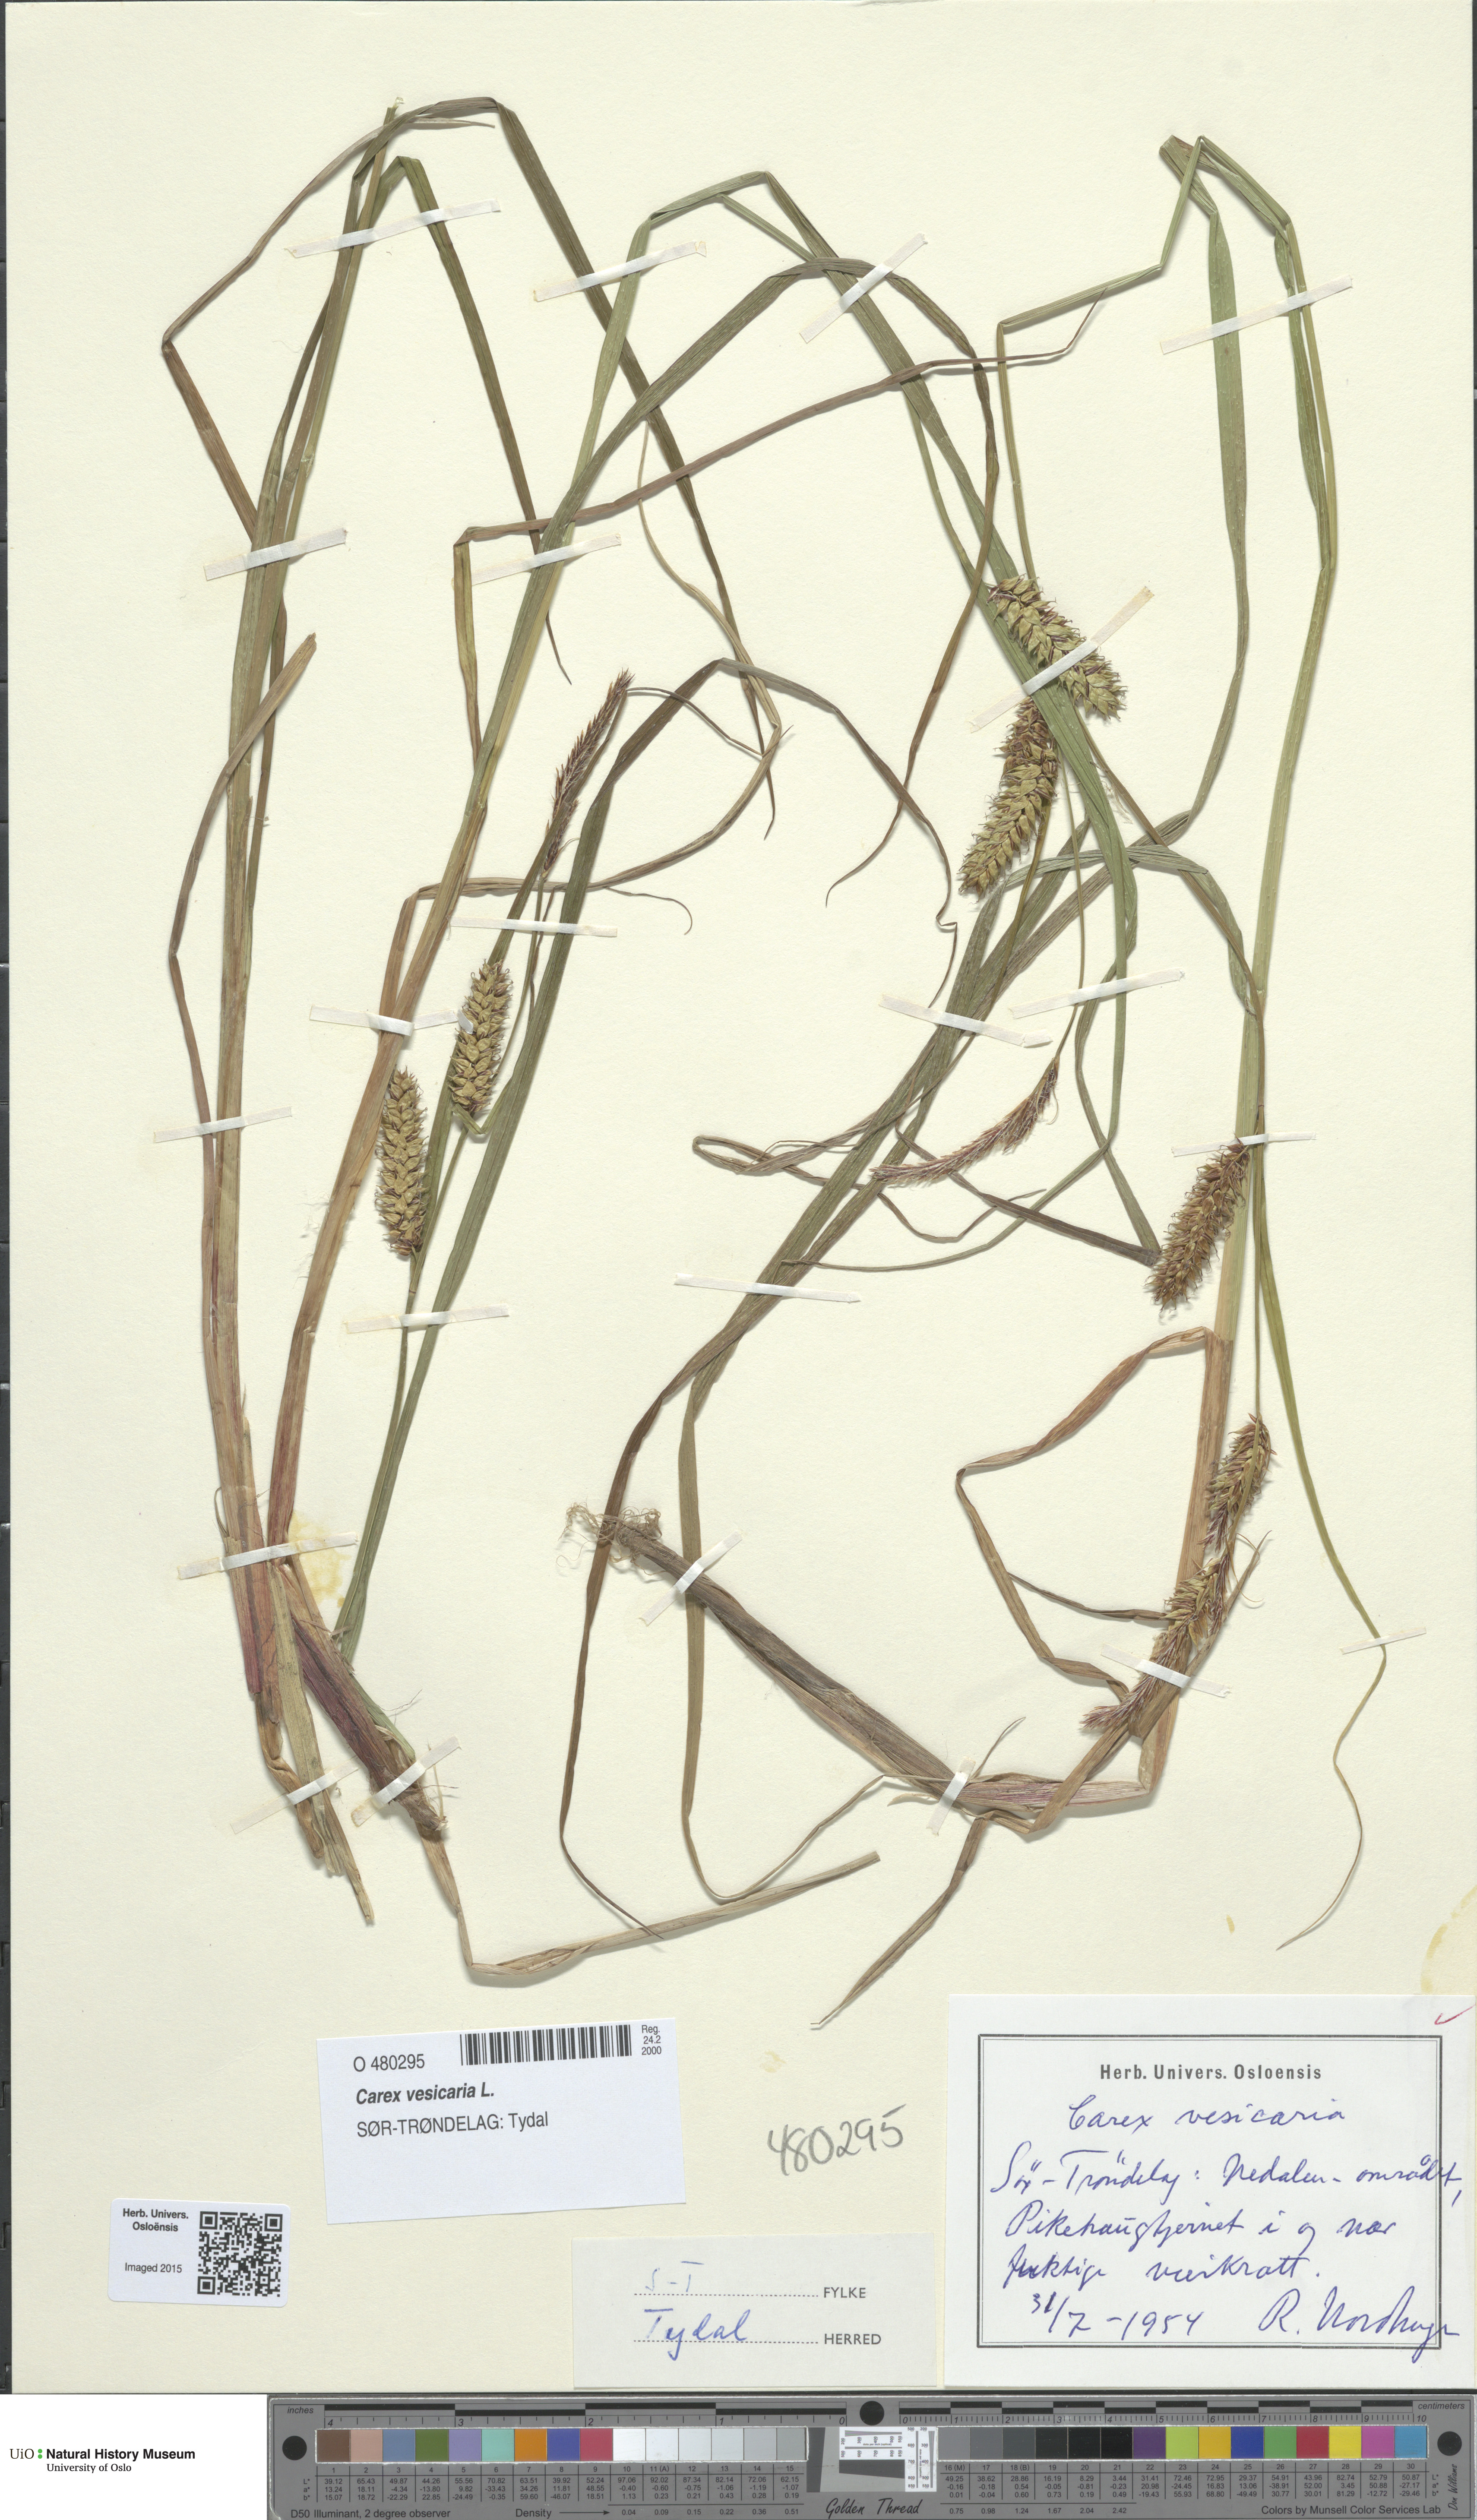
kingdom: Plantae
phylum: Tracheophyta
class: Liliopsida
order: Poales
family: Cyperaceae
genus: Carex
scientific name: Carex vesicaria
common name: Bladder-sedge
